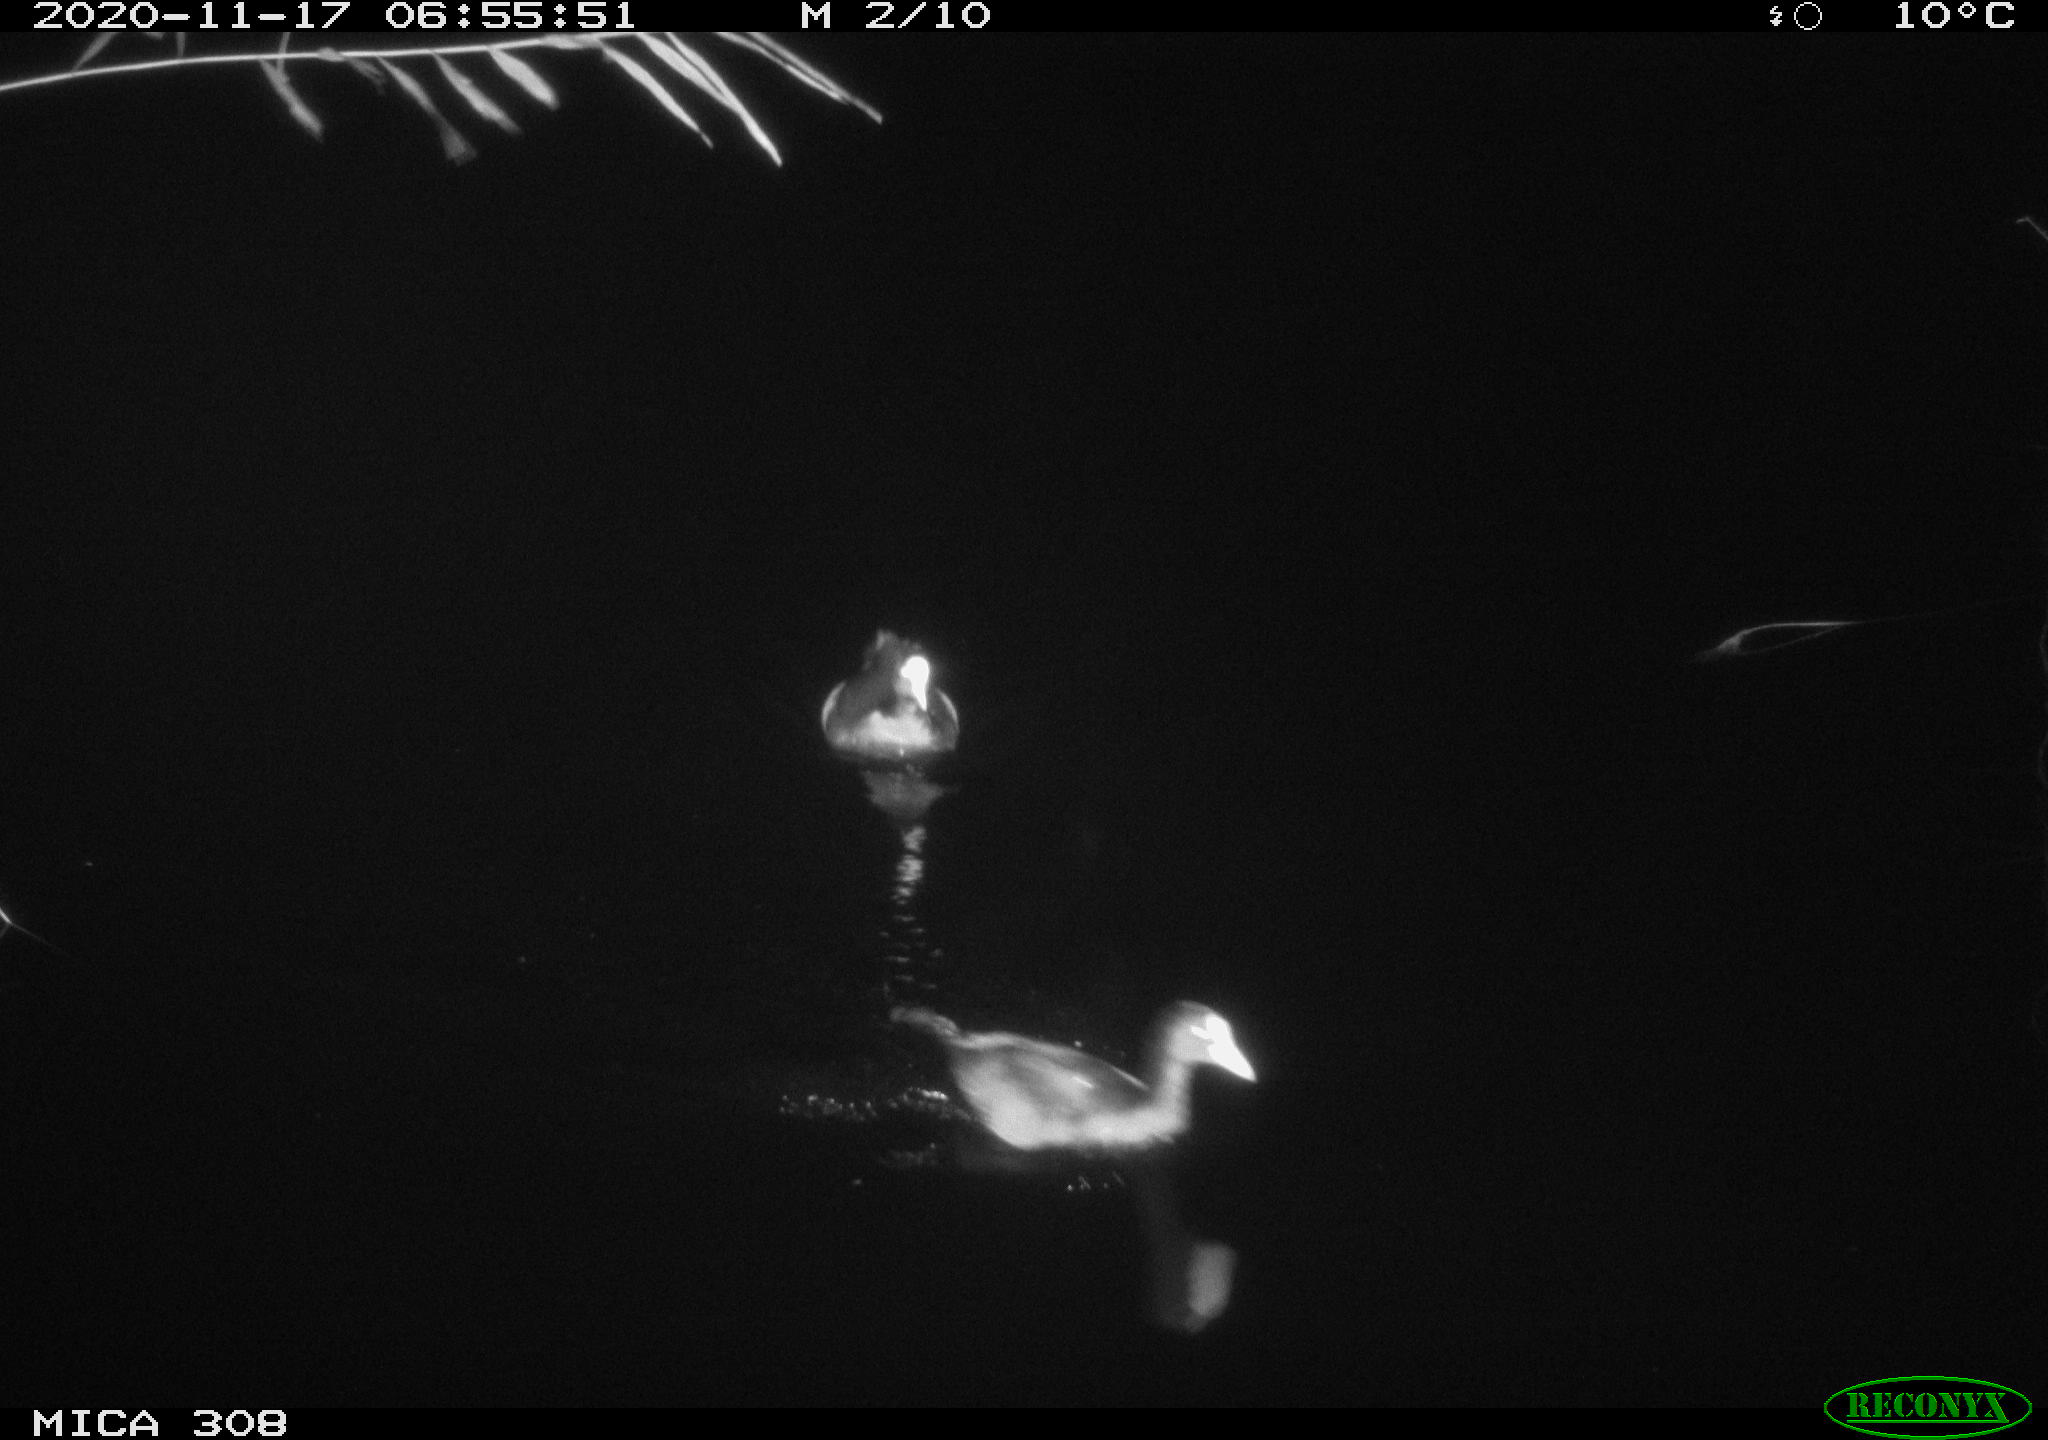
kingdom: Animalia
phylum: Chordata
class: Aves
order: Gruiformes
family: Rallidae
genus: Fulica
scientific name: Fulica atra
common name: Eurasian coot
